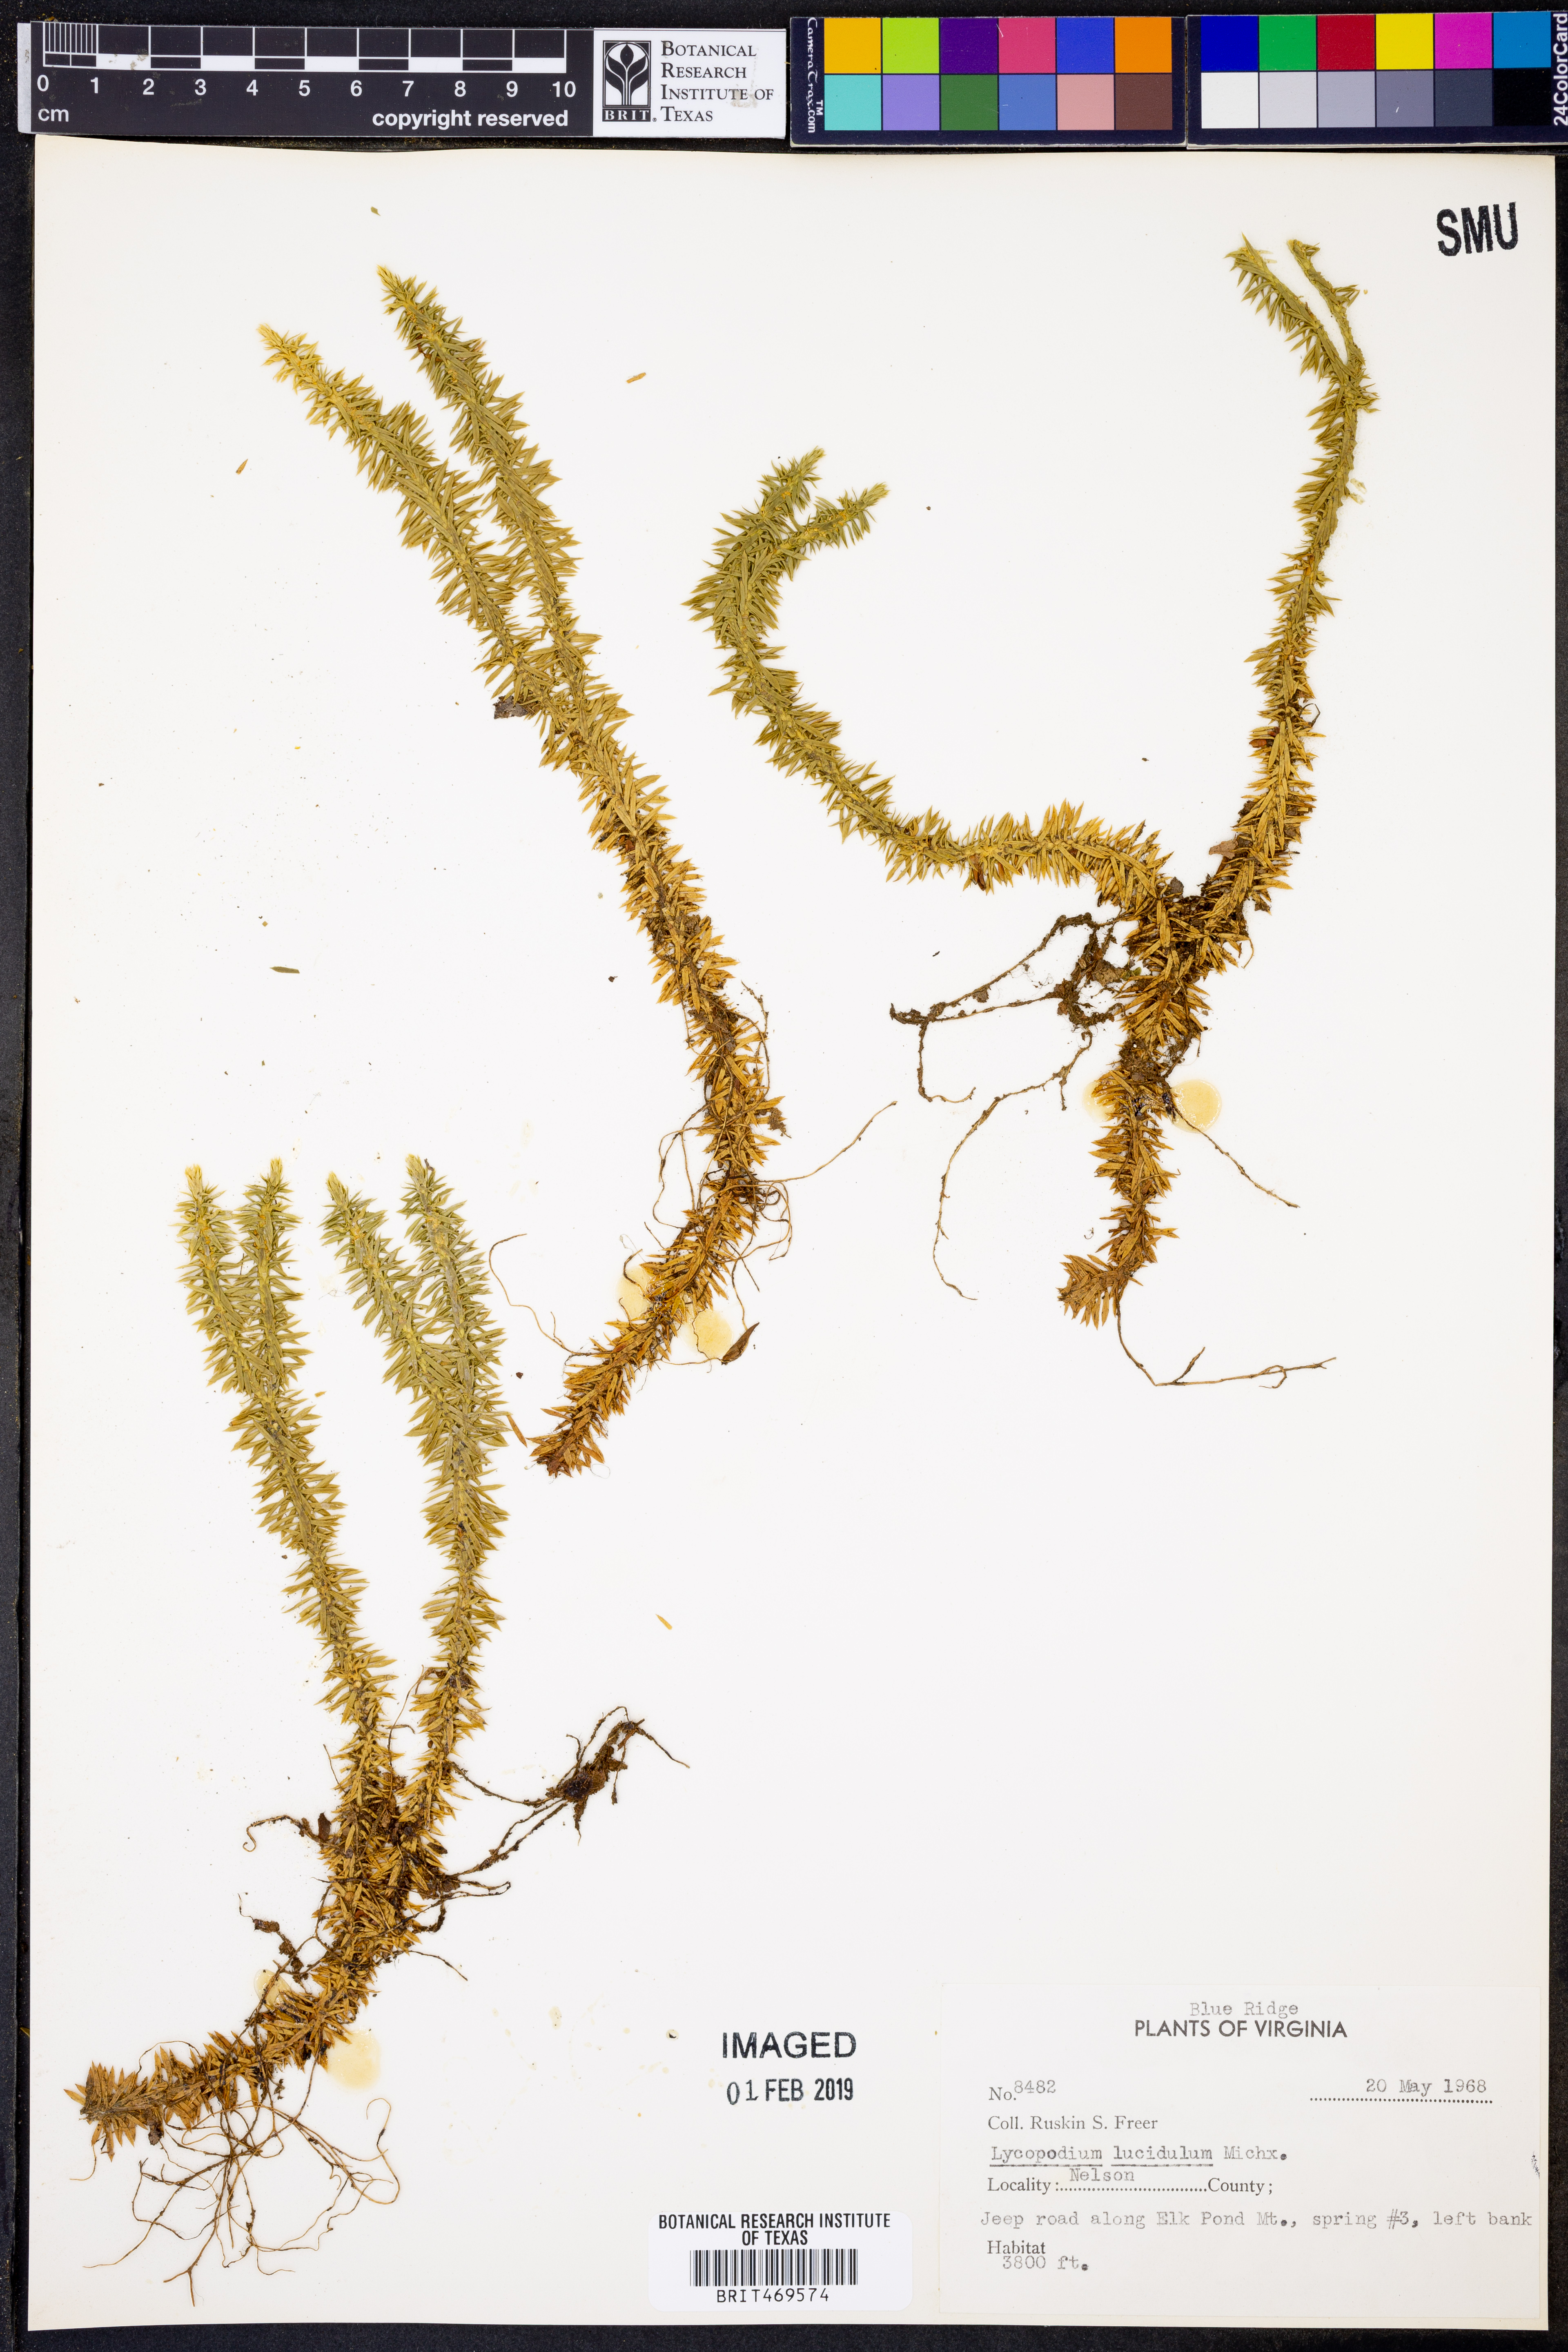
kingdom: Plantae
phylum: Tracheophyta
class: Lycopodiopsida
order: Lycopodiales
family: Lycopodiaceae
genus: Huperzia
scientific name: Huperzia lucidula
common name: Shining clubmoss
